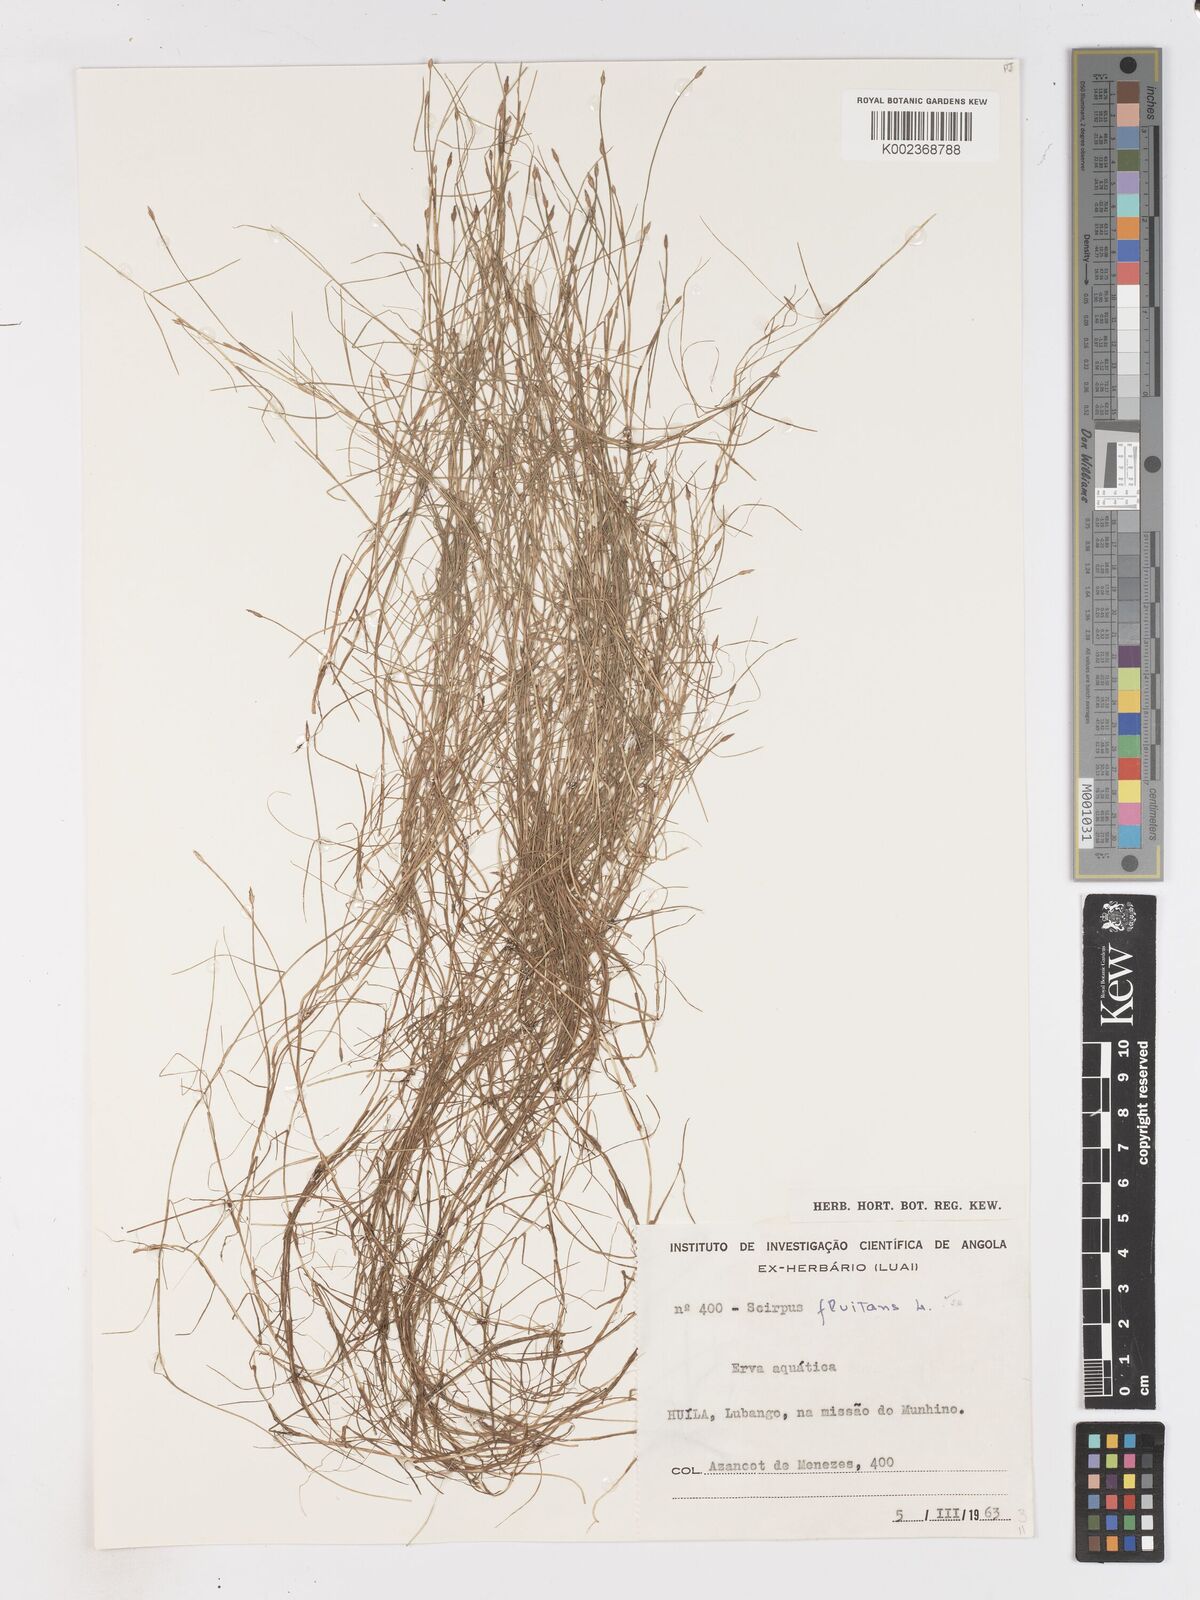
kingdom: Plantae
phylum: Tracheophyta
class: Liliopsida
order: Poales
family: Cyperaceae
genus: Isolepis
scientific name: Isolepis fluitans
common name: Floating club-rush
